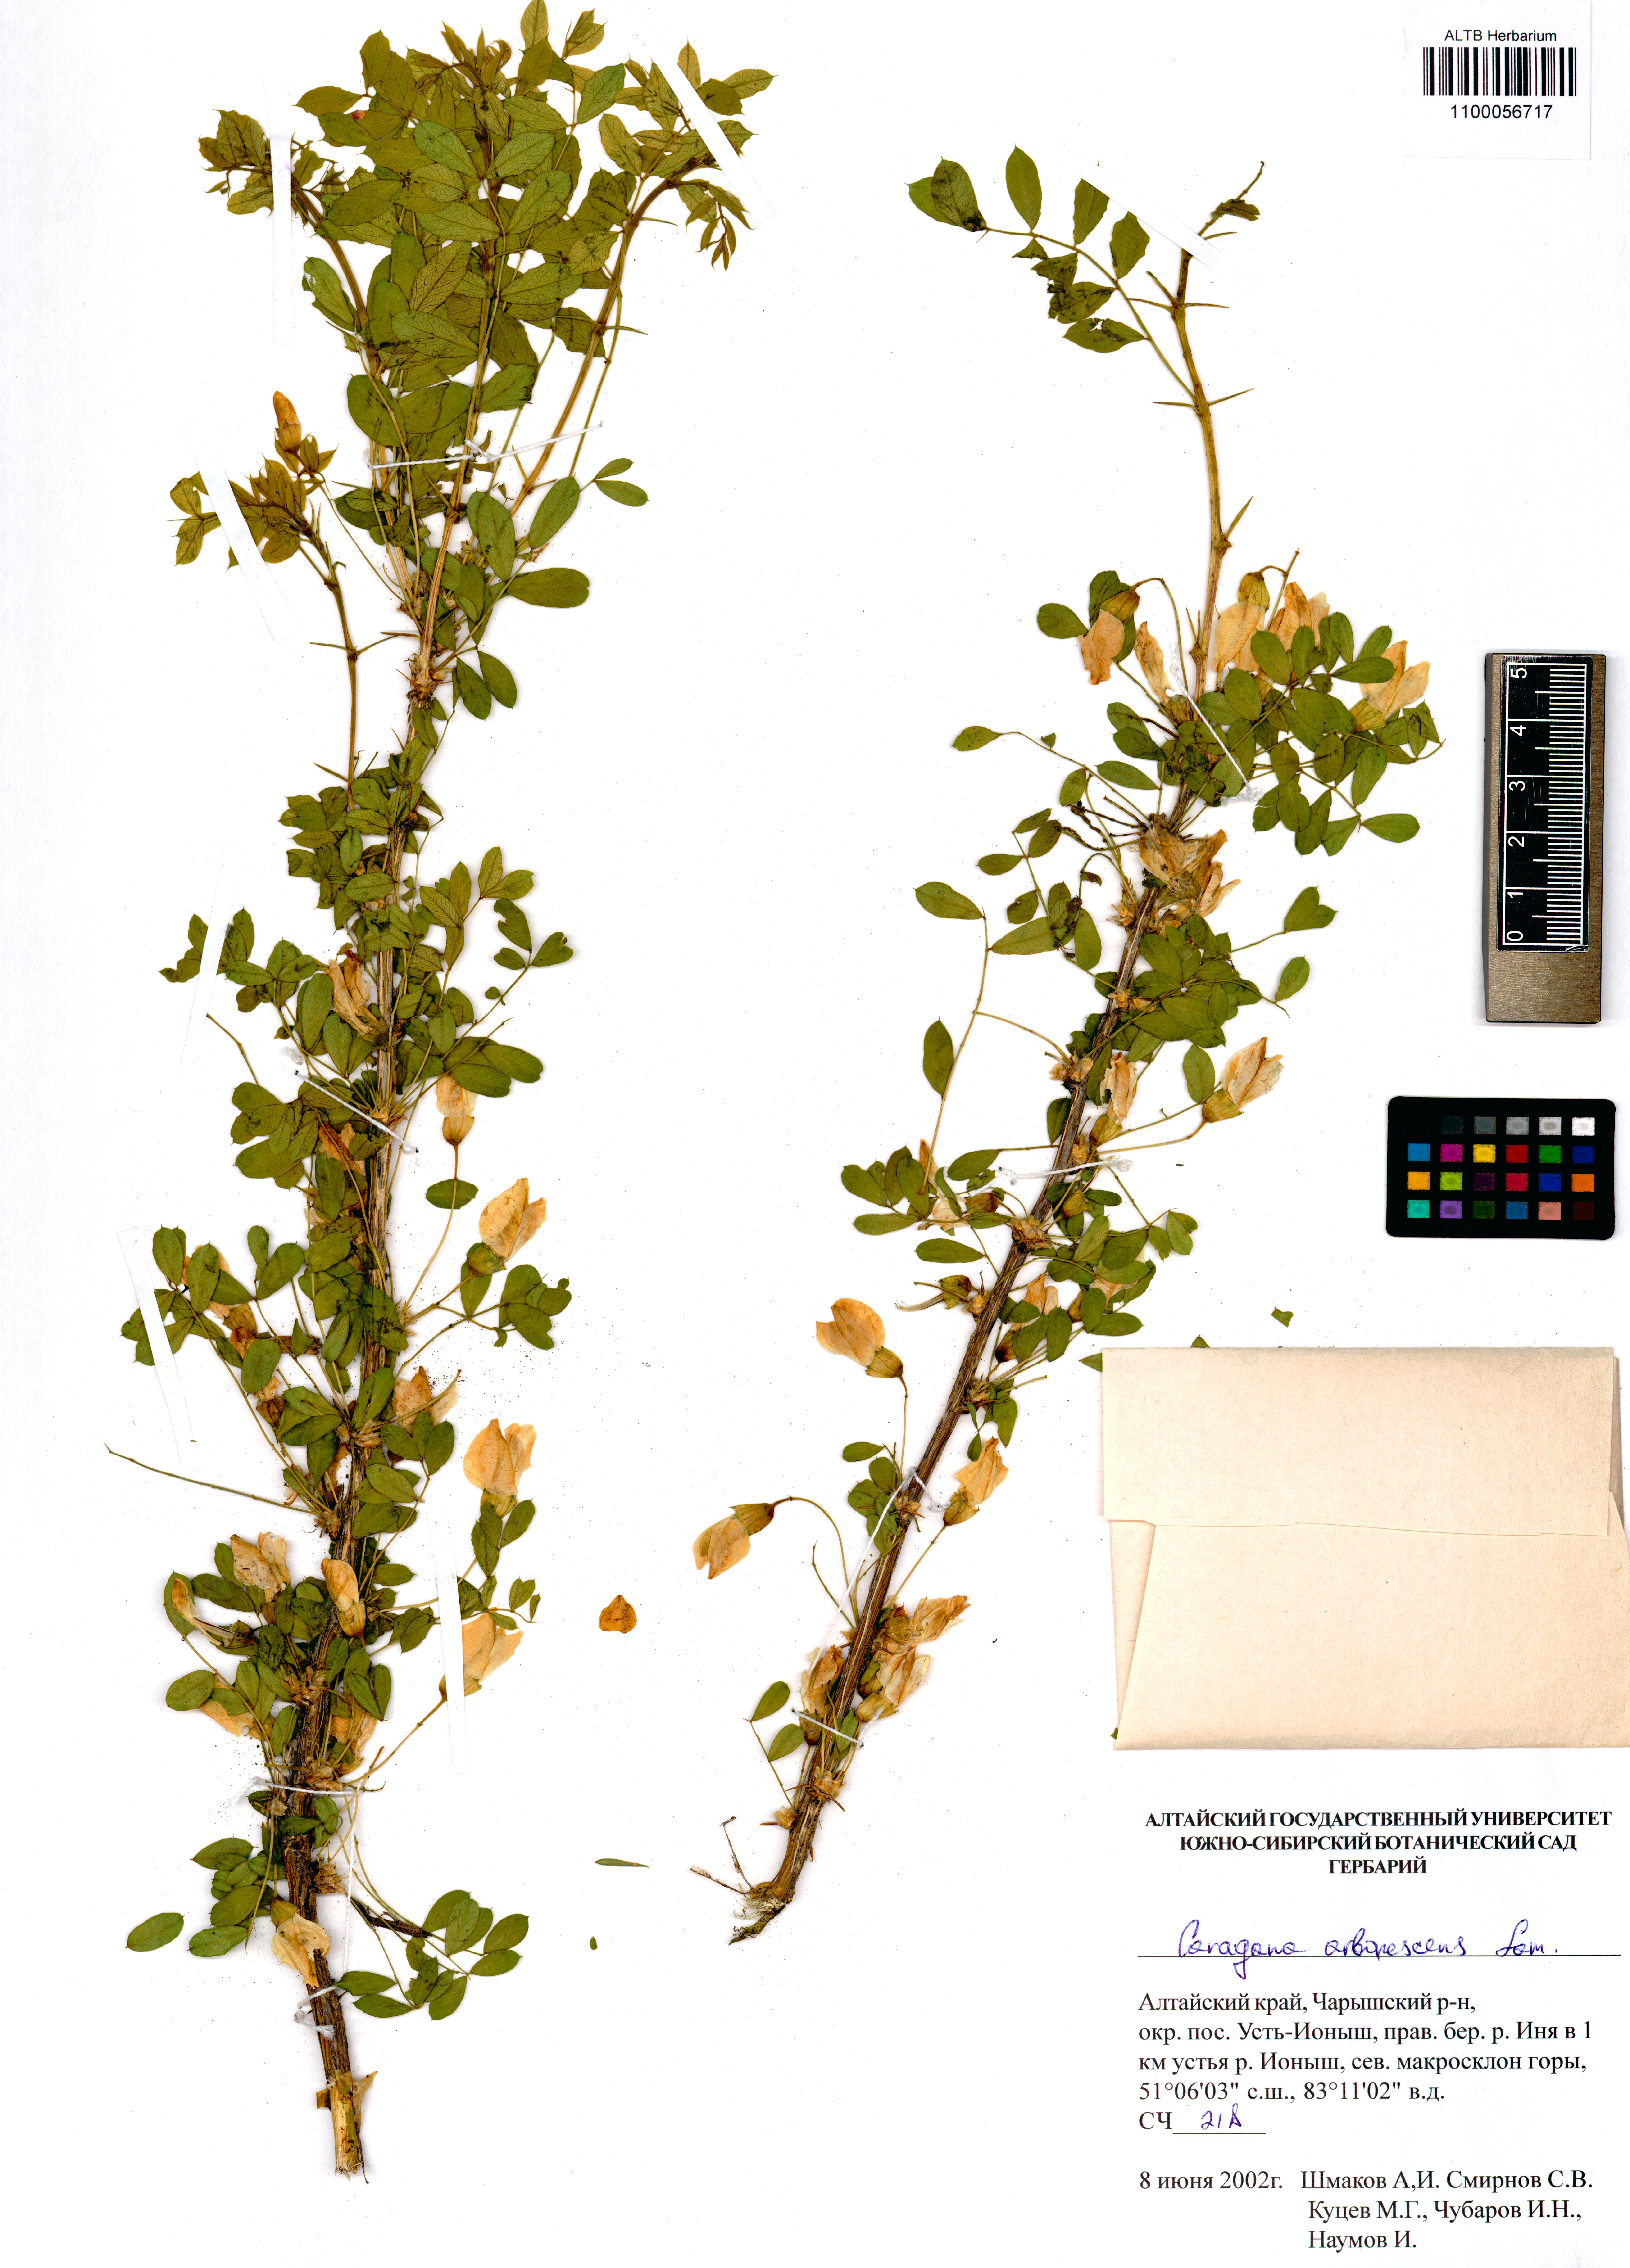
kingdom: Plantae
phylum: Tracheophyta
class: Magnoliopsida
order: Fabales
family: Fabaceae
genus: Caragana
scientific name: Caragana arborescens
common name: Siberian peashrub
